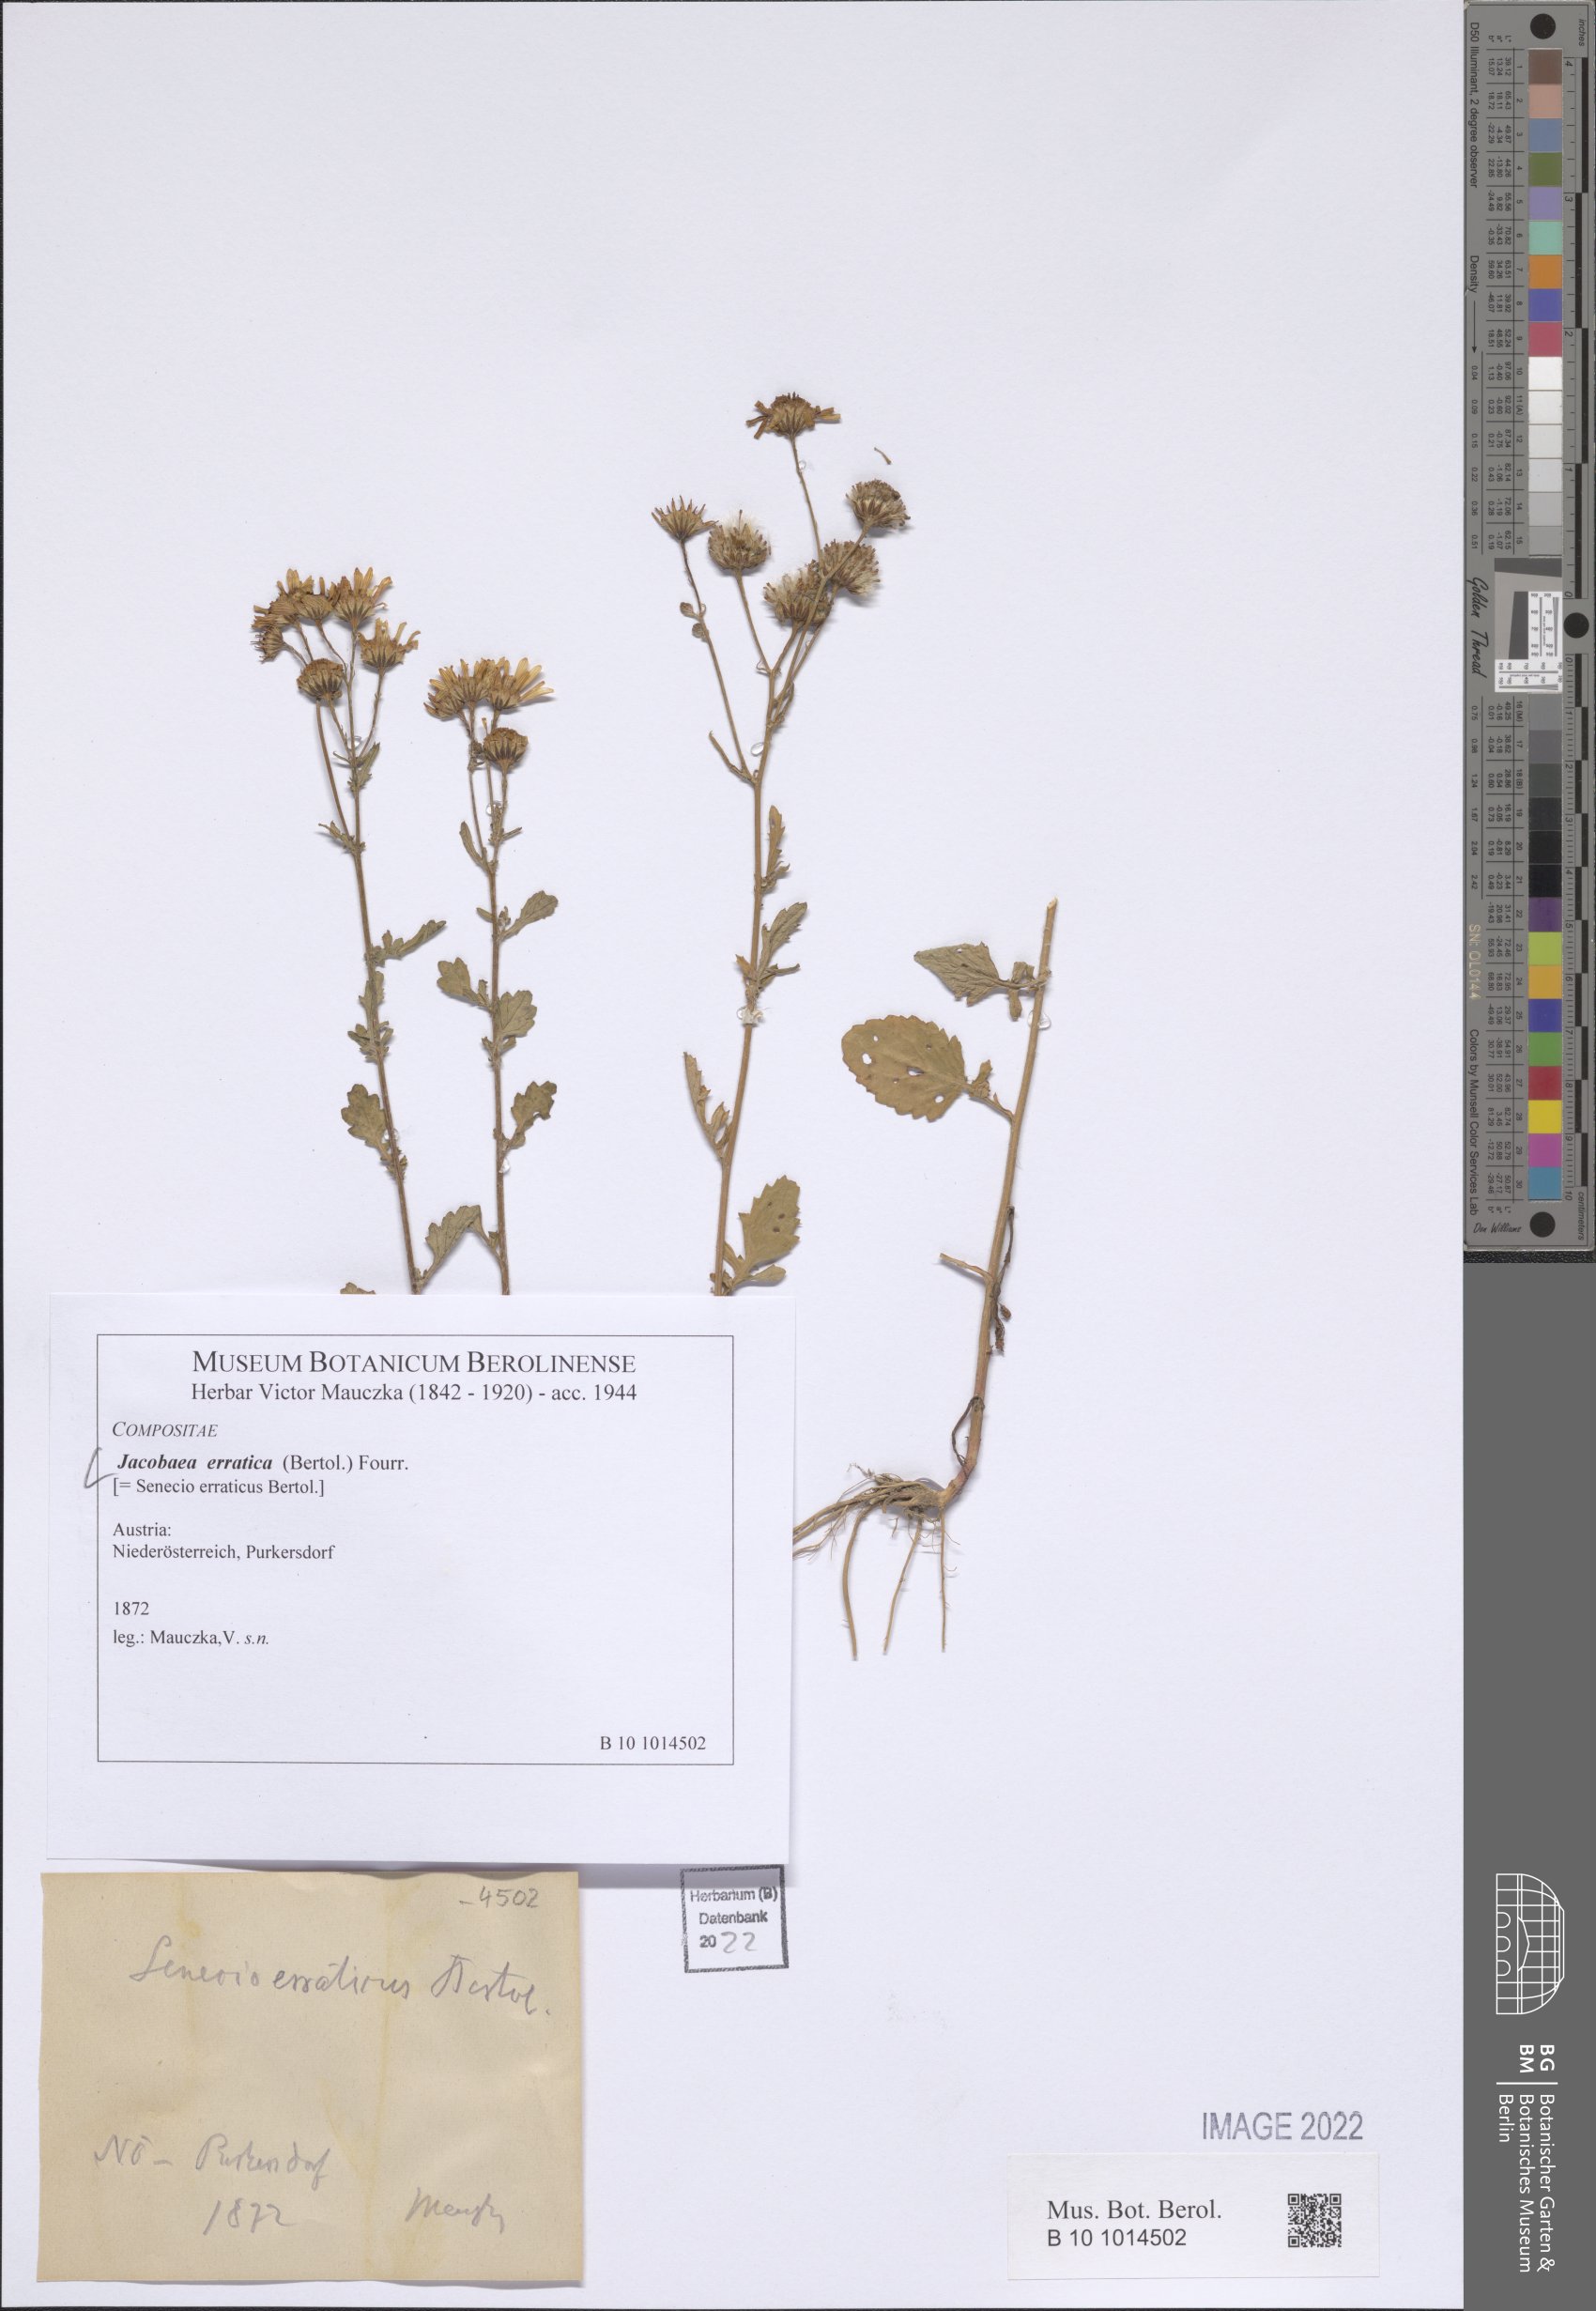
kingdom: Plantae
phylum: Tracheophyta
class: Magnoliopsida
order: Asterales
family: Asteraceae
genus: Jacobaea
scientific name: Jacobaea erratica
